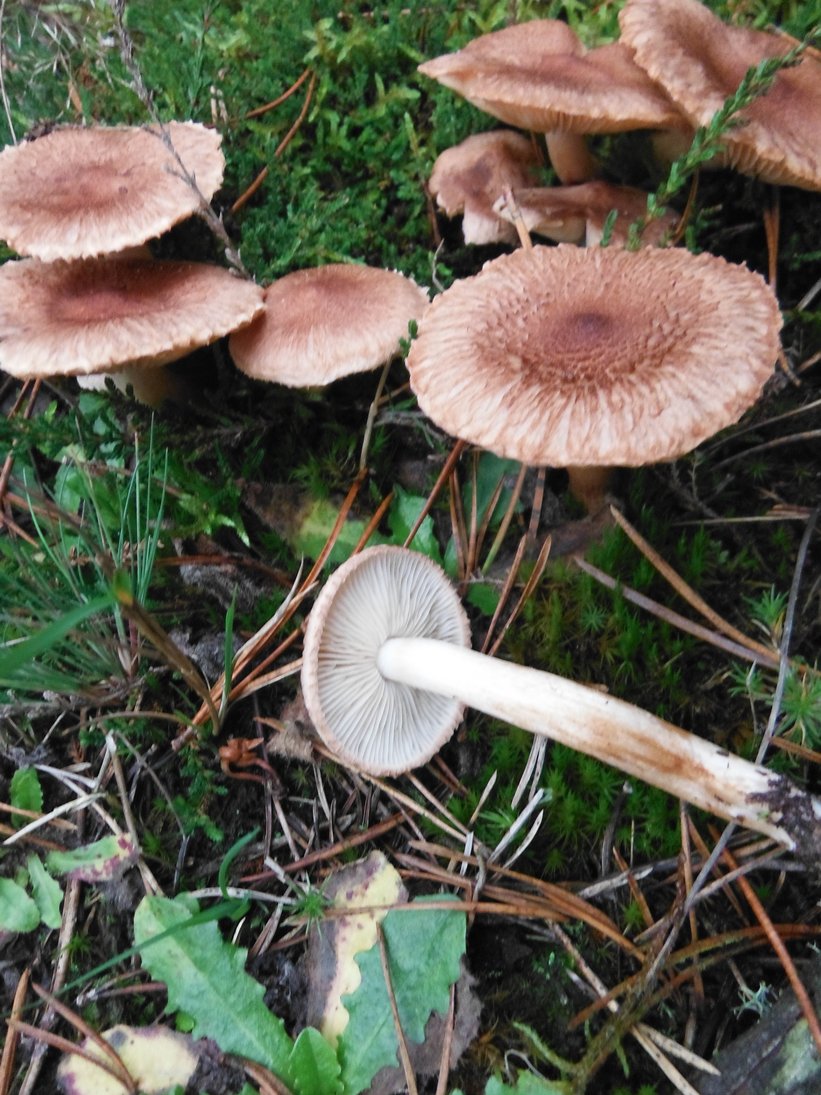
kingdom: Fungi
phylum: Basidiomycota
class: Agaricomycetes
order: Agaricales
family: Tricholomataceae
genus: Tricholoma
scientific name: Tricholoma vaccinum
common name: ko-ridderhat
